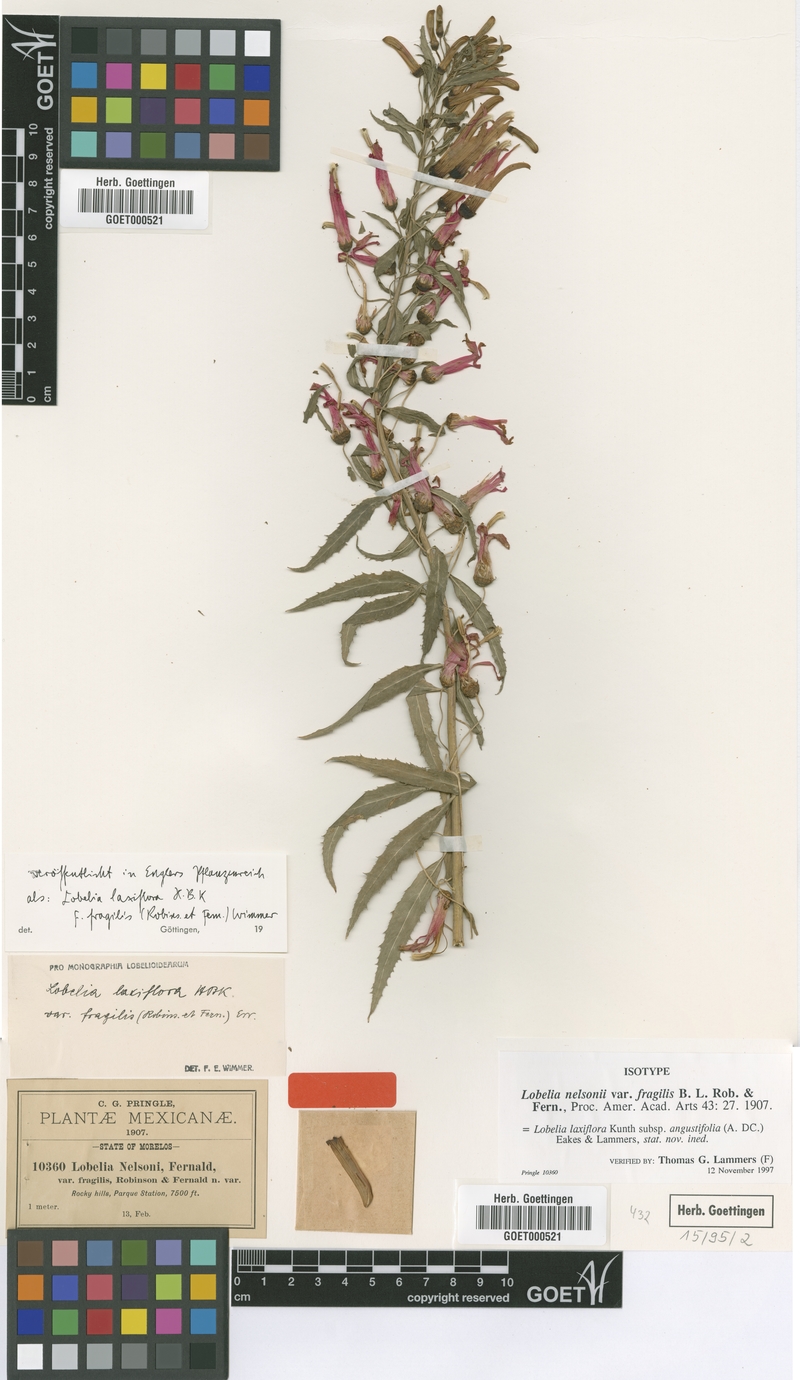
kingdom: Plantae
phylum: Tracheophyta
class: Magnoliopsida
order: Asterales
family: Campanulaceae
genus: Lobelia
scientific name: Lobelia laxiflora
